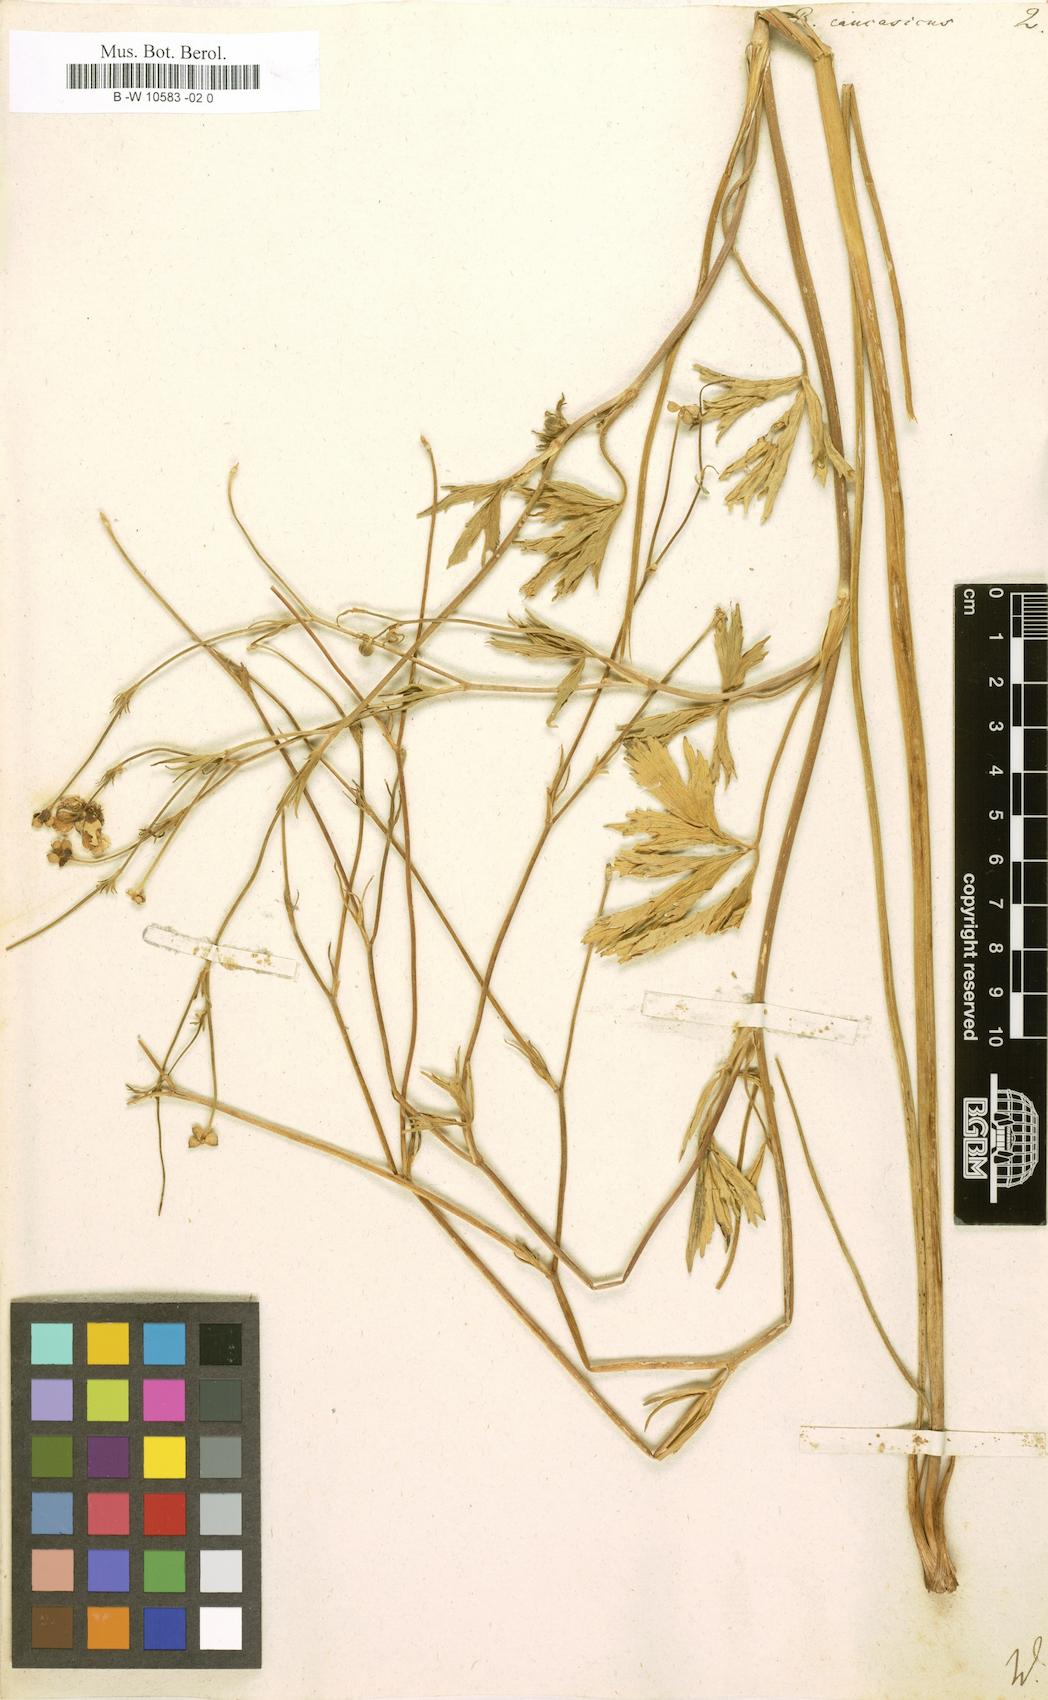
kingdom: Plantae
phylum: Tracheophyta
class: Magnoliopsida
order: Ranunculales
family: Ranunculaceae
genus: Ranunculus
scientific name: Ranunculus caucasicus
